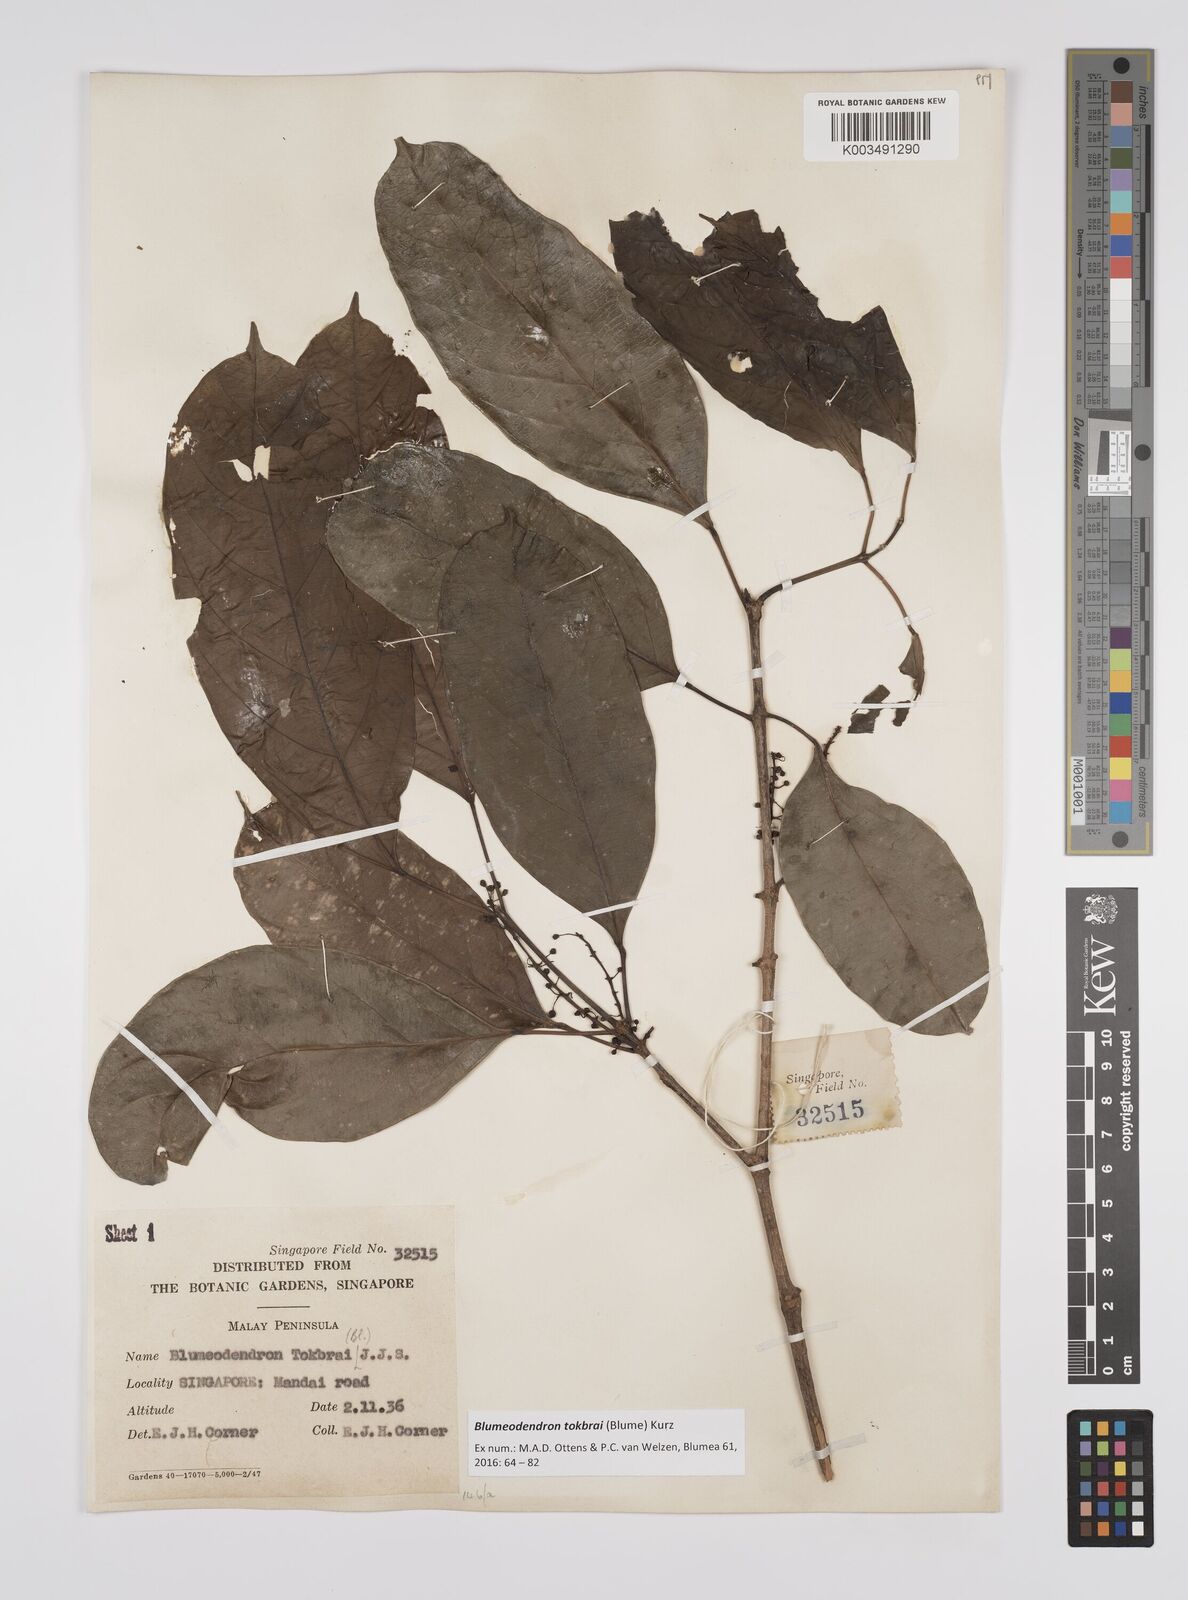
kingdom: Plantae
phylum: Tracheophyta
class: Magnoliopsida
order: Malpighiales
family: Euphorbiaceae
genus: Blumeodendron
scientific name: Blumeodendron tokbrai
